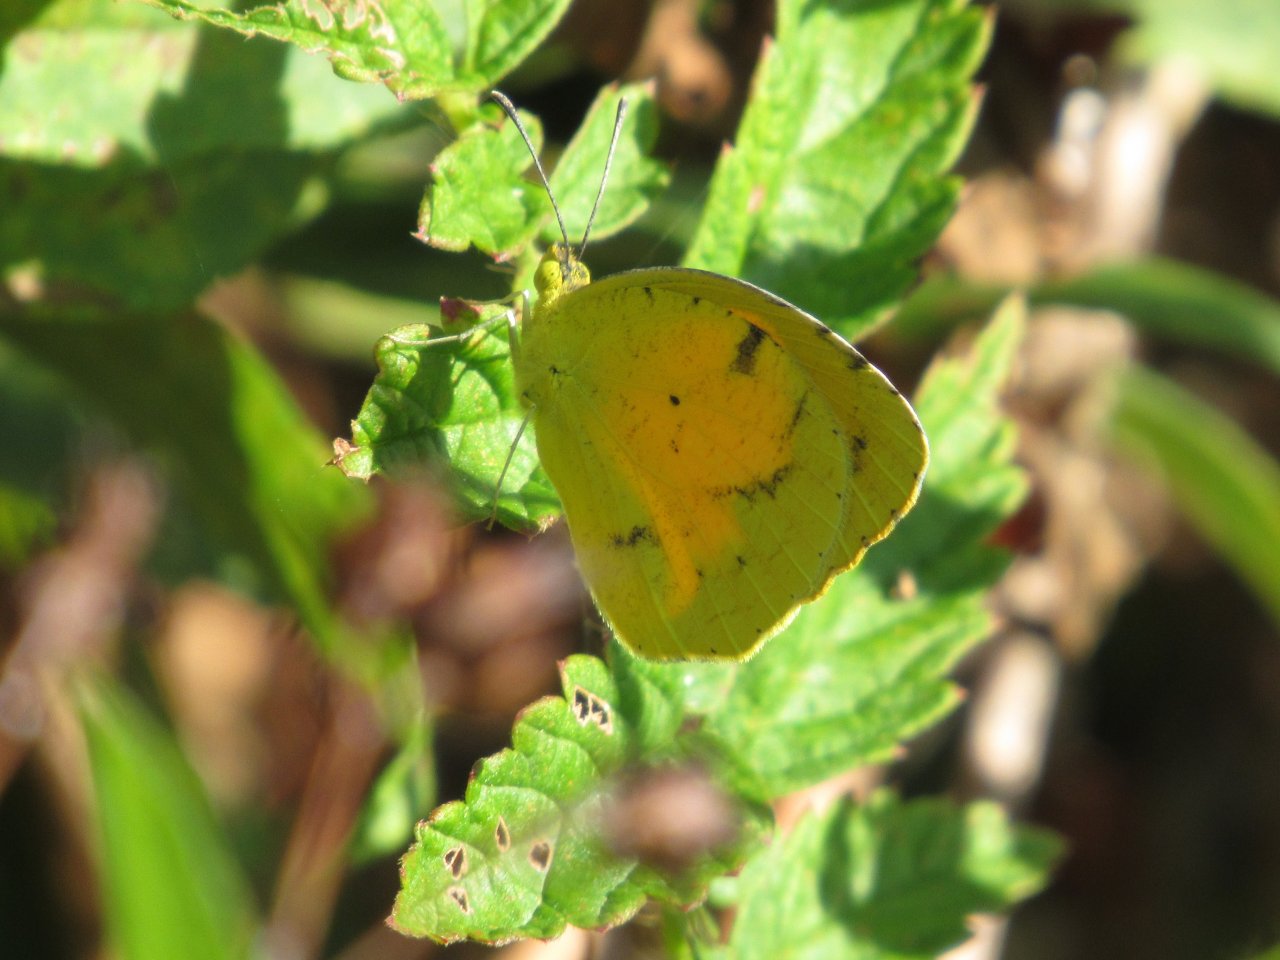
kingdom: Animalia
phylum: Arthropoda
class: Insecta
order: Lepidoptera
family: Pieridae
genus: Abaeis
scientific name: Abaeis nicippe
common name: Sleepy Orange
